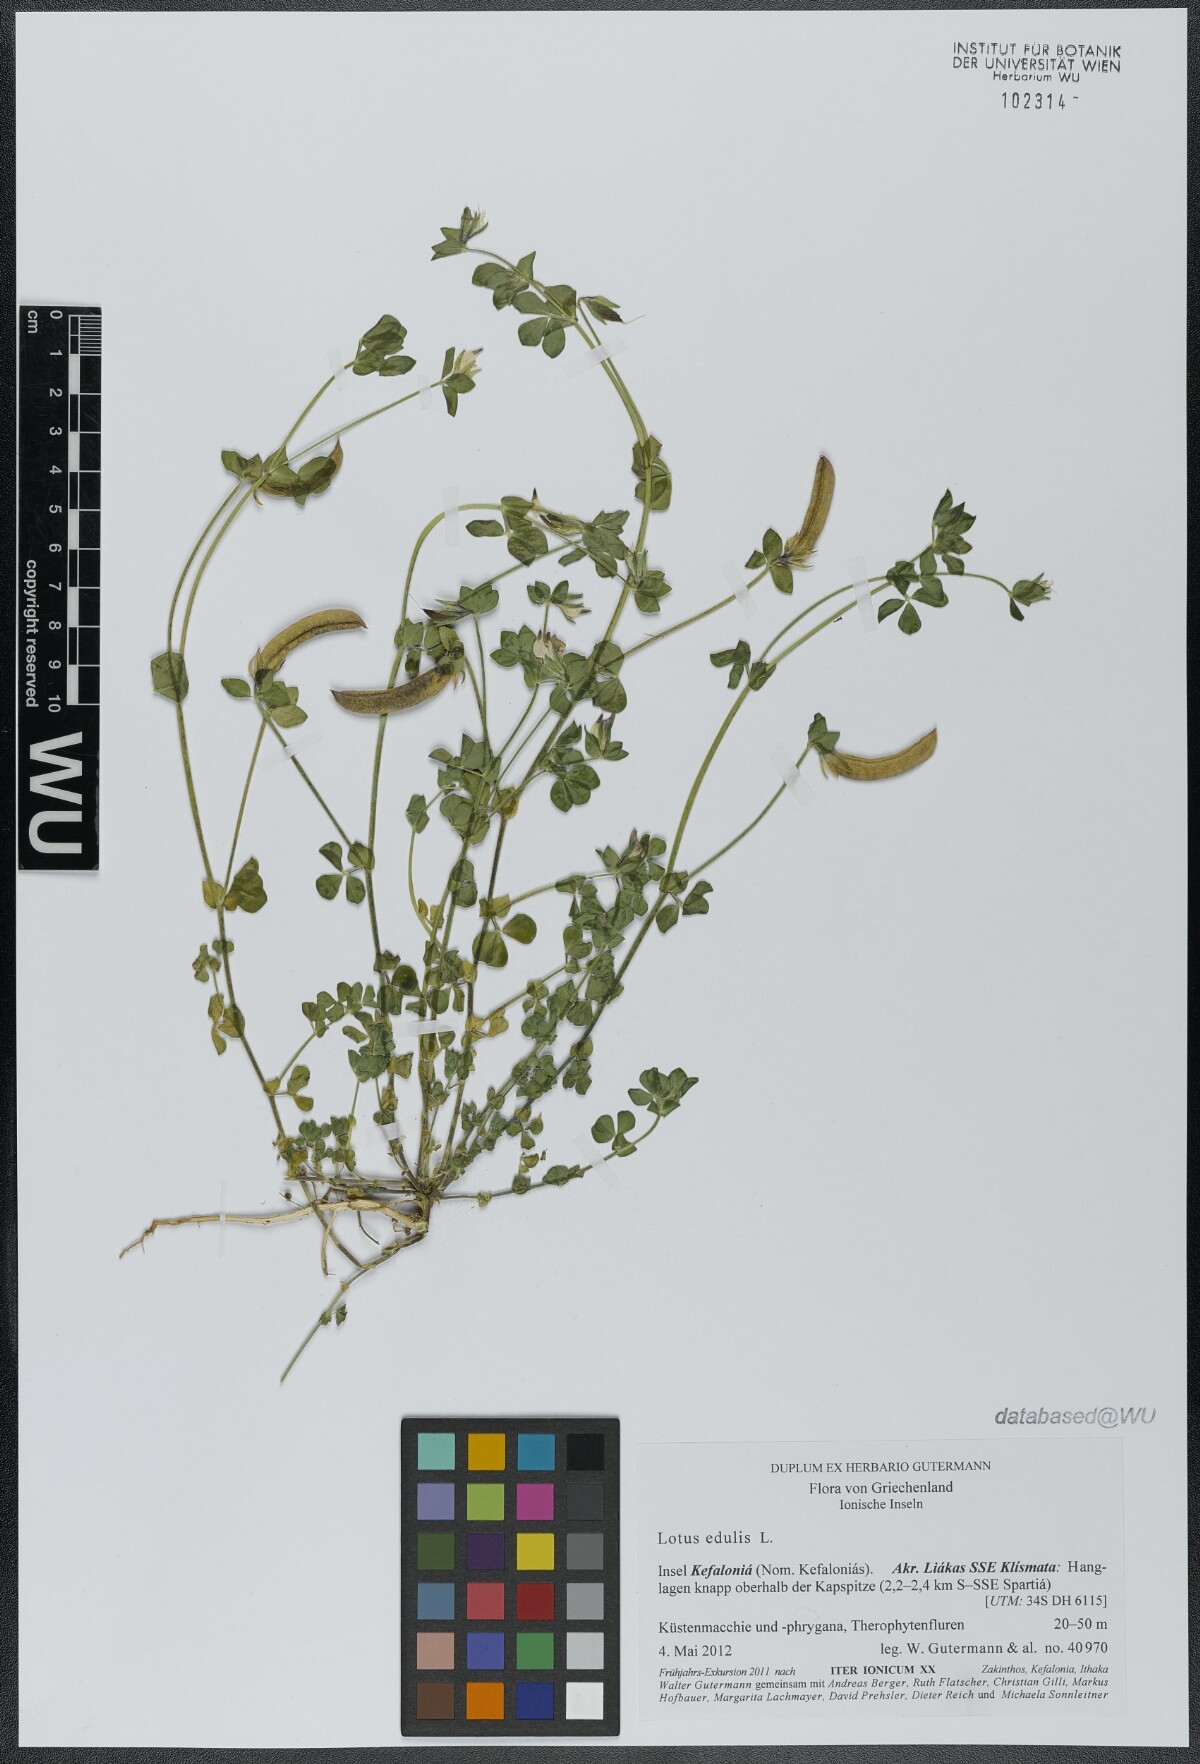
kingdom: Plantae
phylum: Tracheophyta
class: Magnoliopsida
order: Fabales
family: Fabaceae
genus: Lotus
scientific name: Lotus edulis
